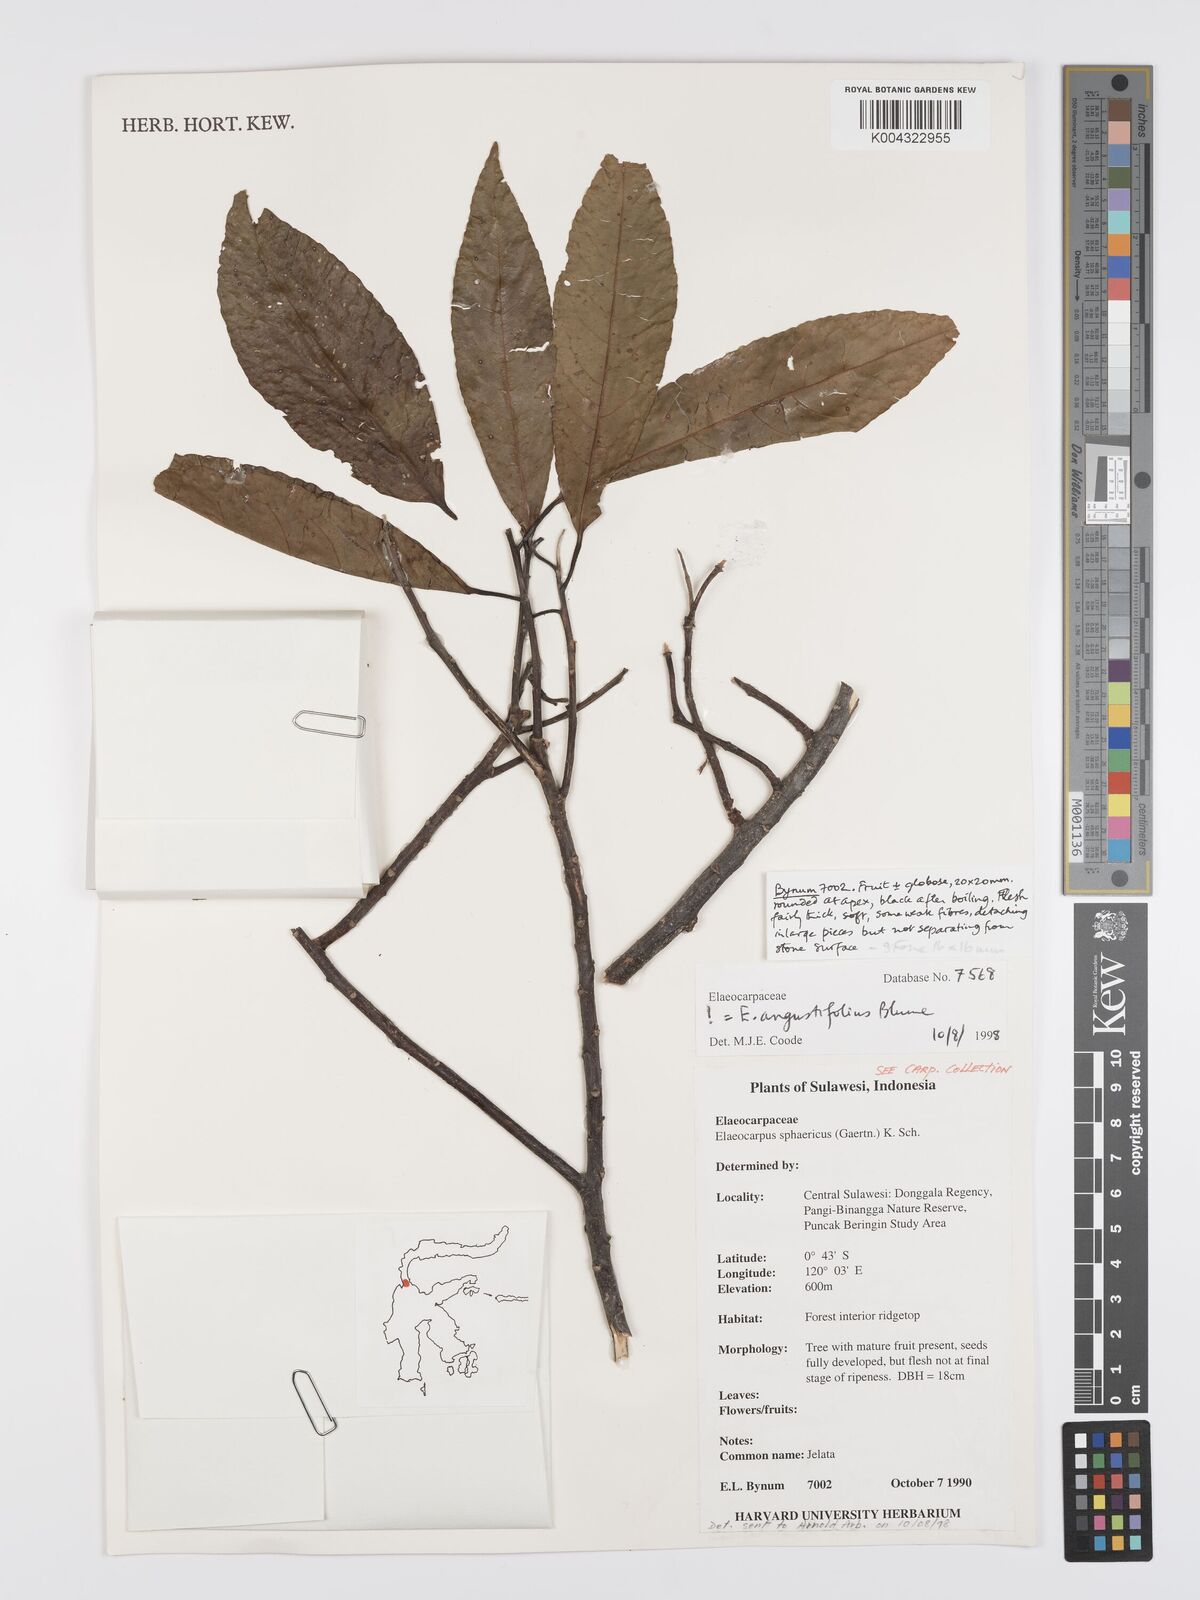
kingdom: Plantae
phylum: Tracheophyta
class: Magnoliopsida
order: Oxalidales
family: Elaeocarpaceae
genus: Elaeocarpus
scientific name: Elaeocarpus sphaericus
